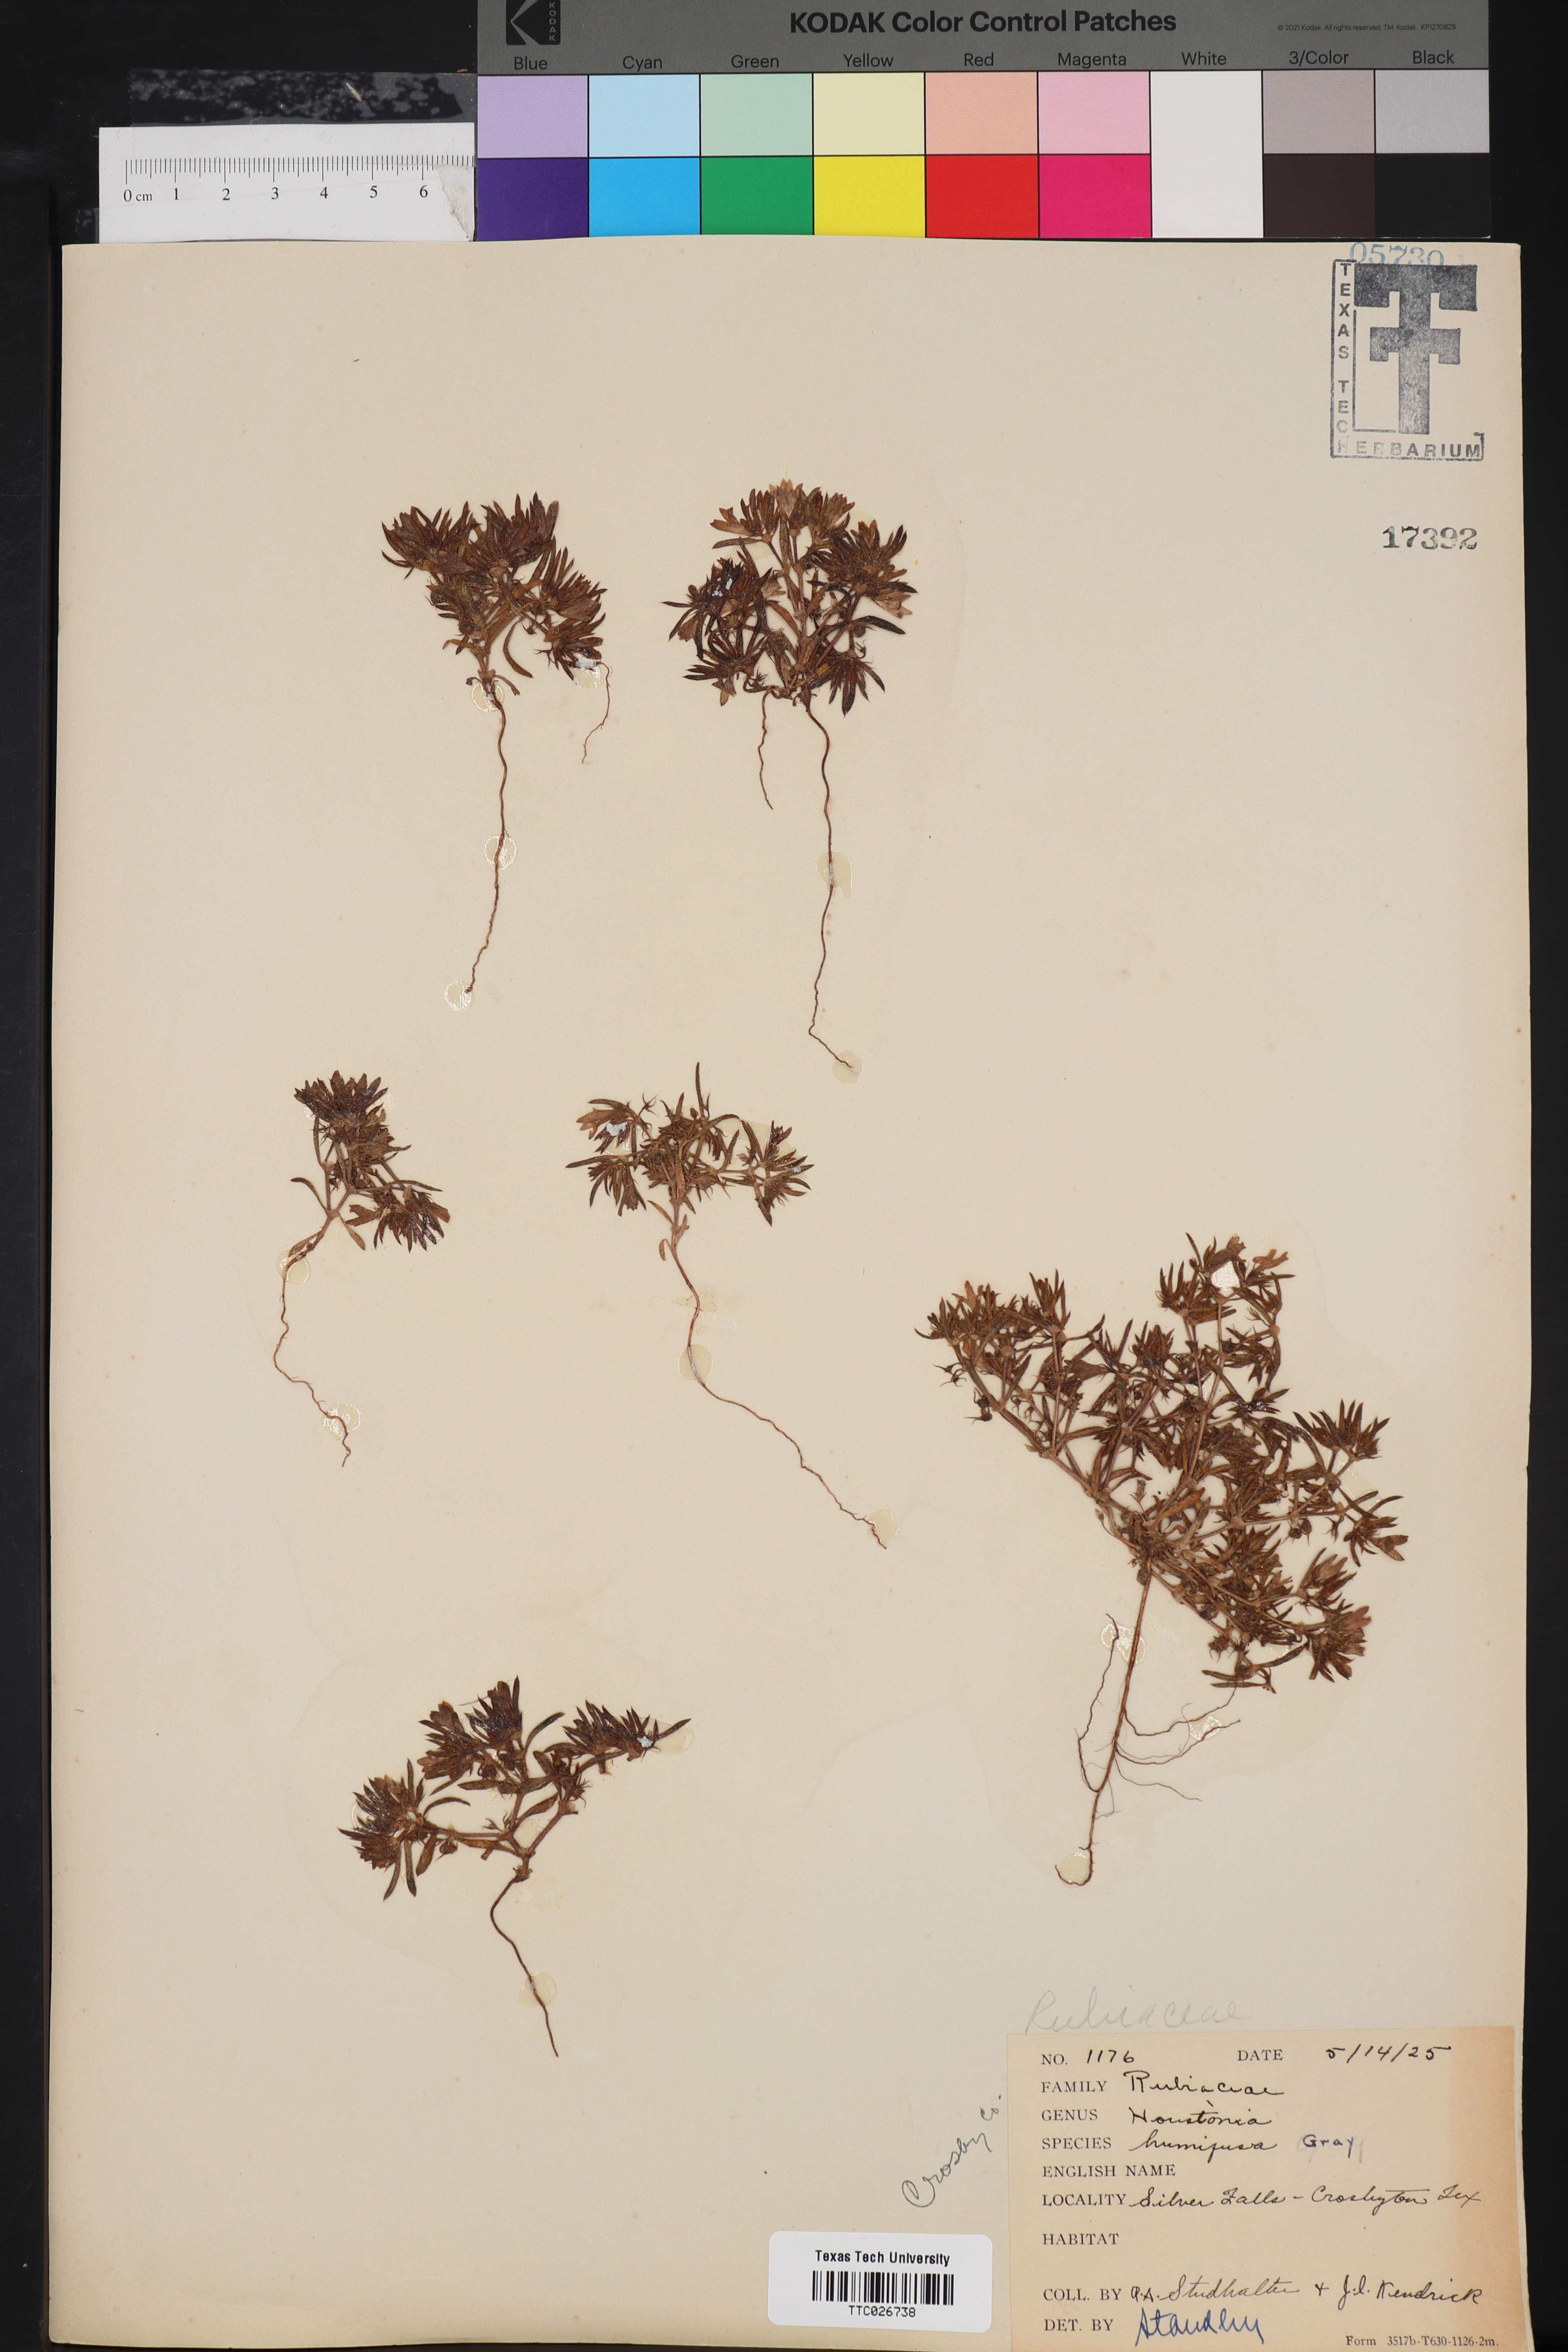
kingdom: Plantae
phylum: Tracheophyta
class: Magnoliopsida
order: Gentianales
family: Rubiaceae
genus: Houstonia
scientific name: Houstonia humifusa
